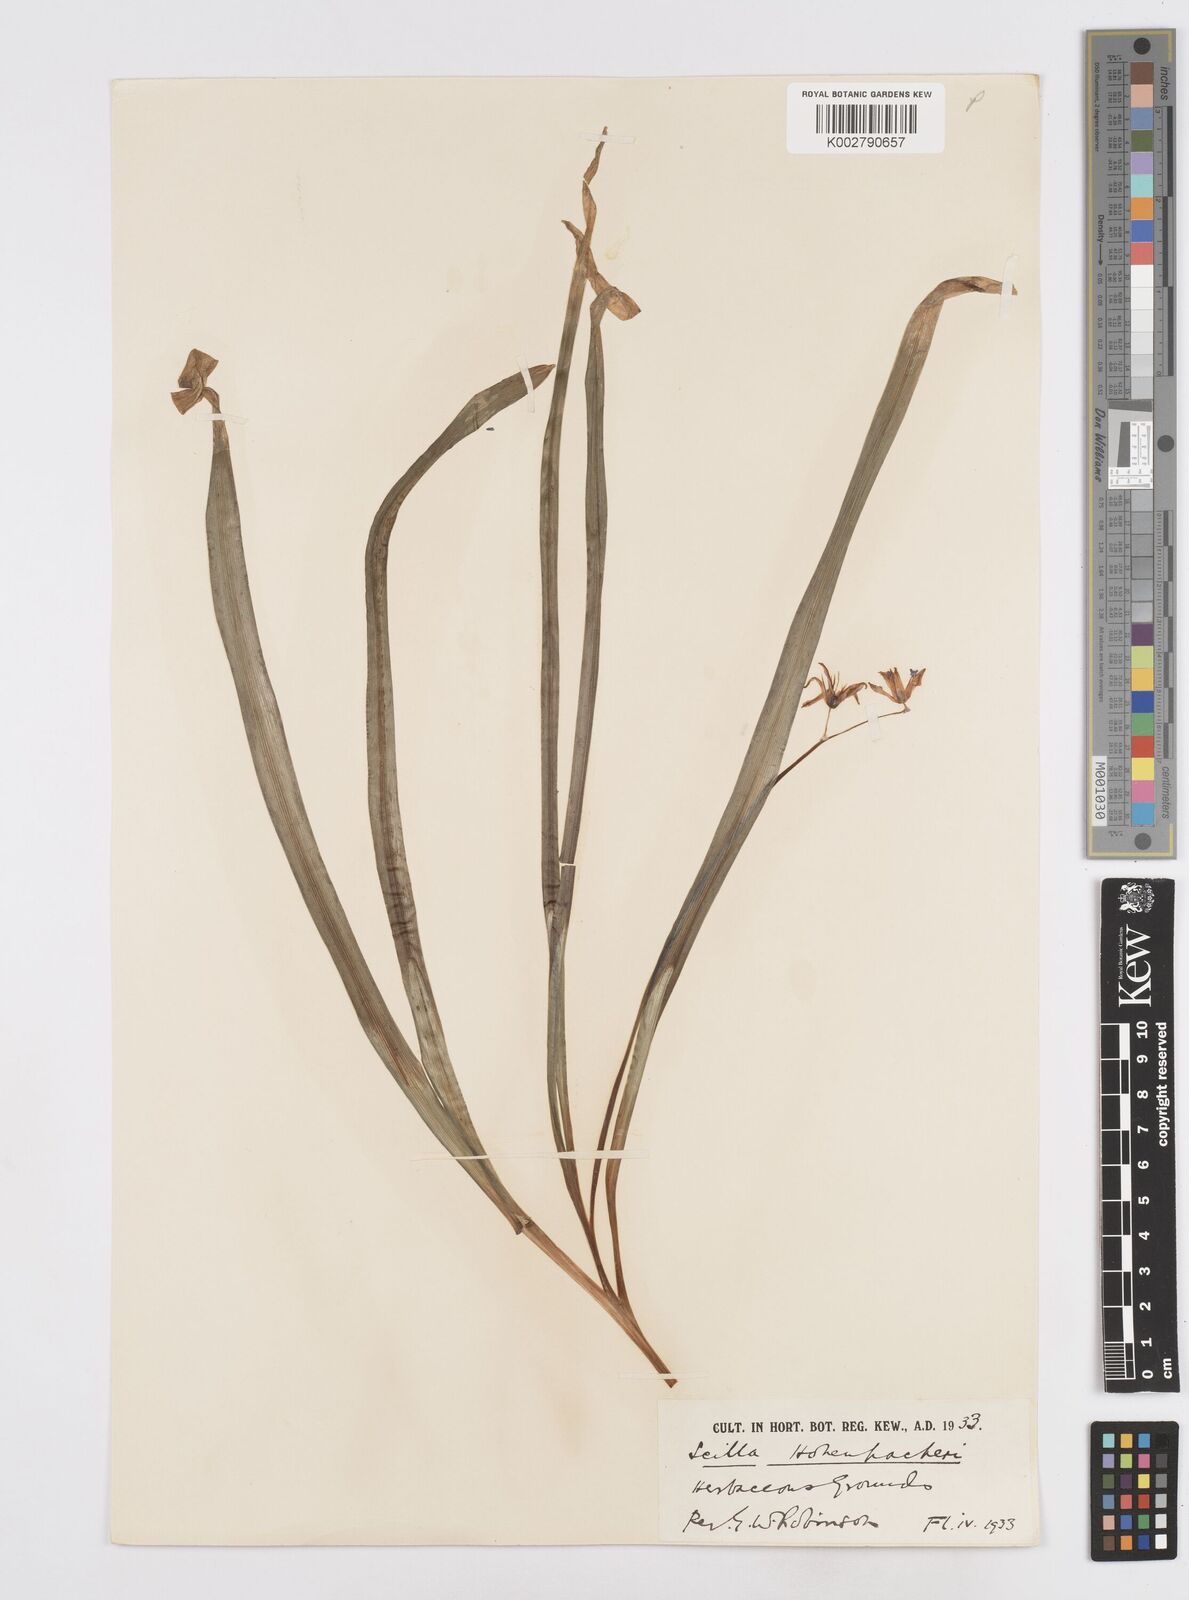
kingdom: Plantae
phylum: Tracheophyta
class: Liliopsida
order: Asparagales
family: Asparagaceae
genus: Scilla
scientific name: Scilla cilicica
